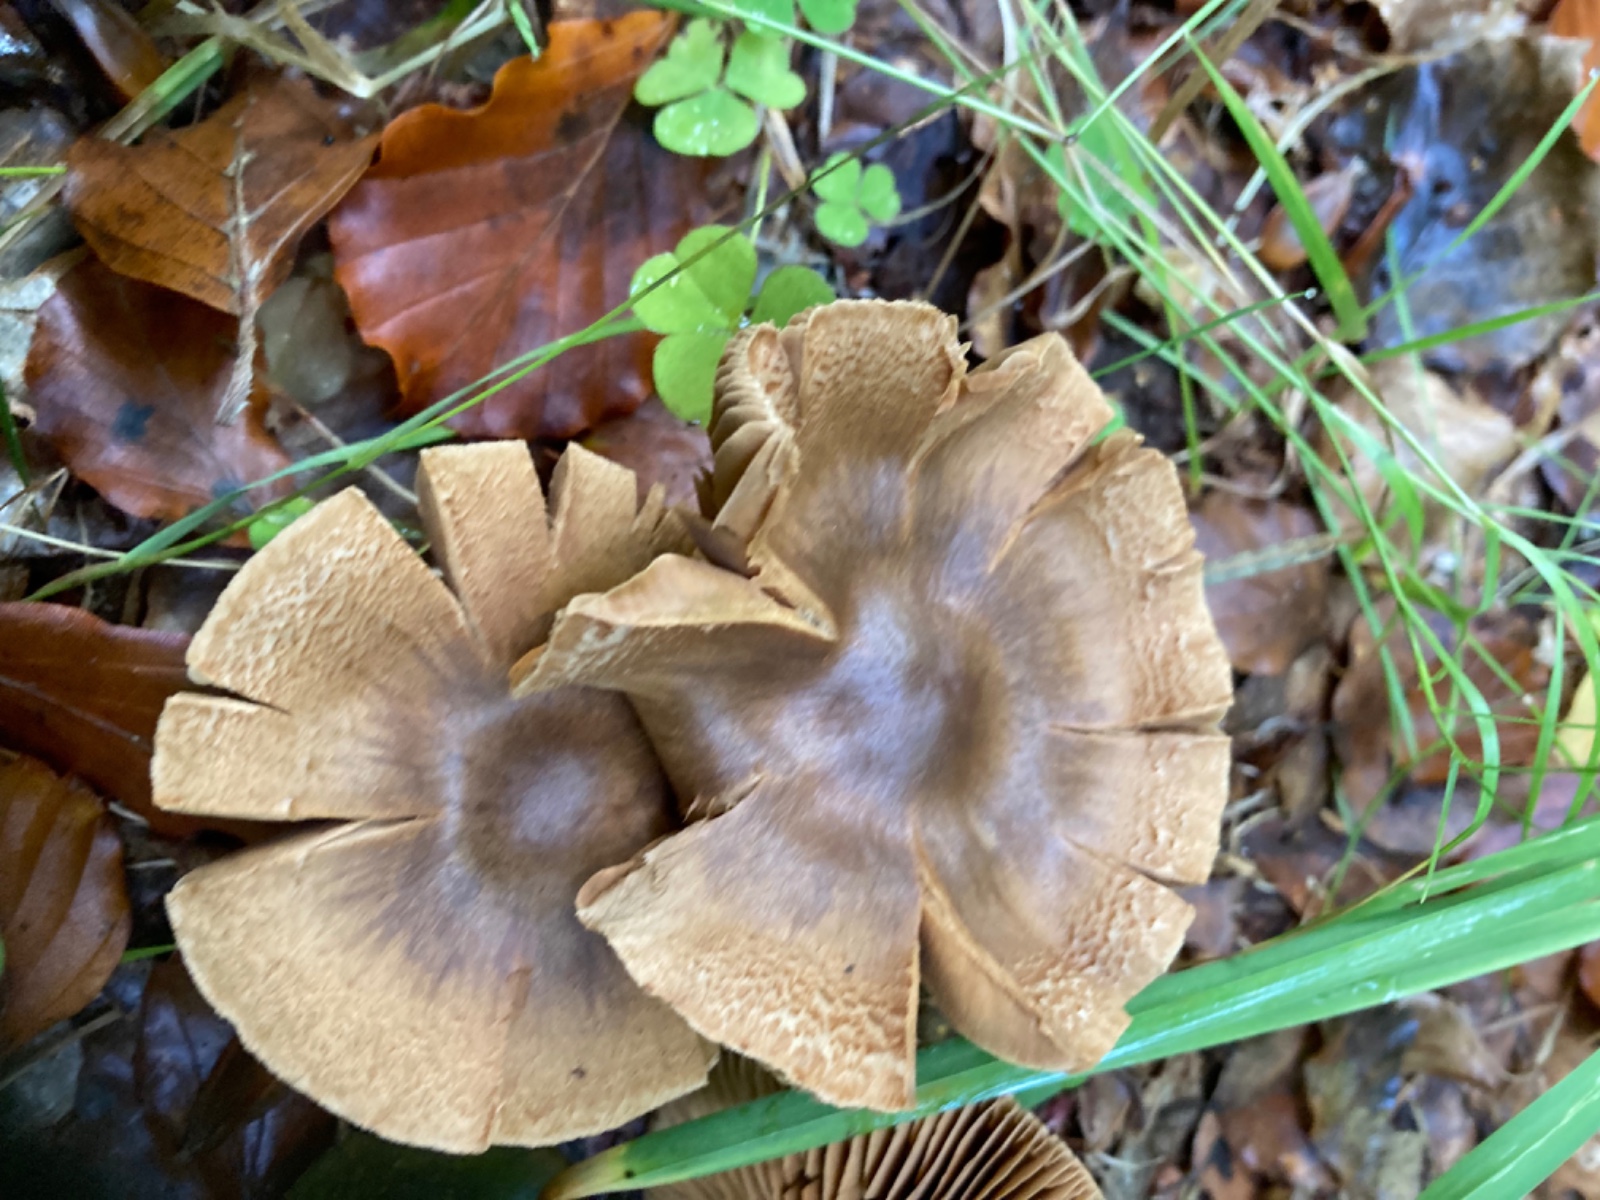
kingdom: Fungi
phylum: Basidiomycota
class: Agaricomycetes
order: Agaricales
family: Cortinariaceae
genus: Cortinarius
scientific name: Cortinarius raphanoides
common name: ræddike-slørhat
